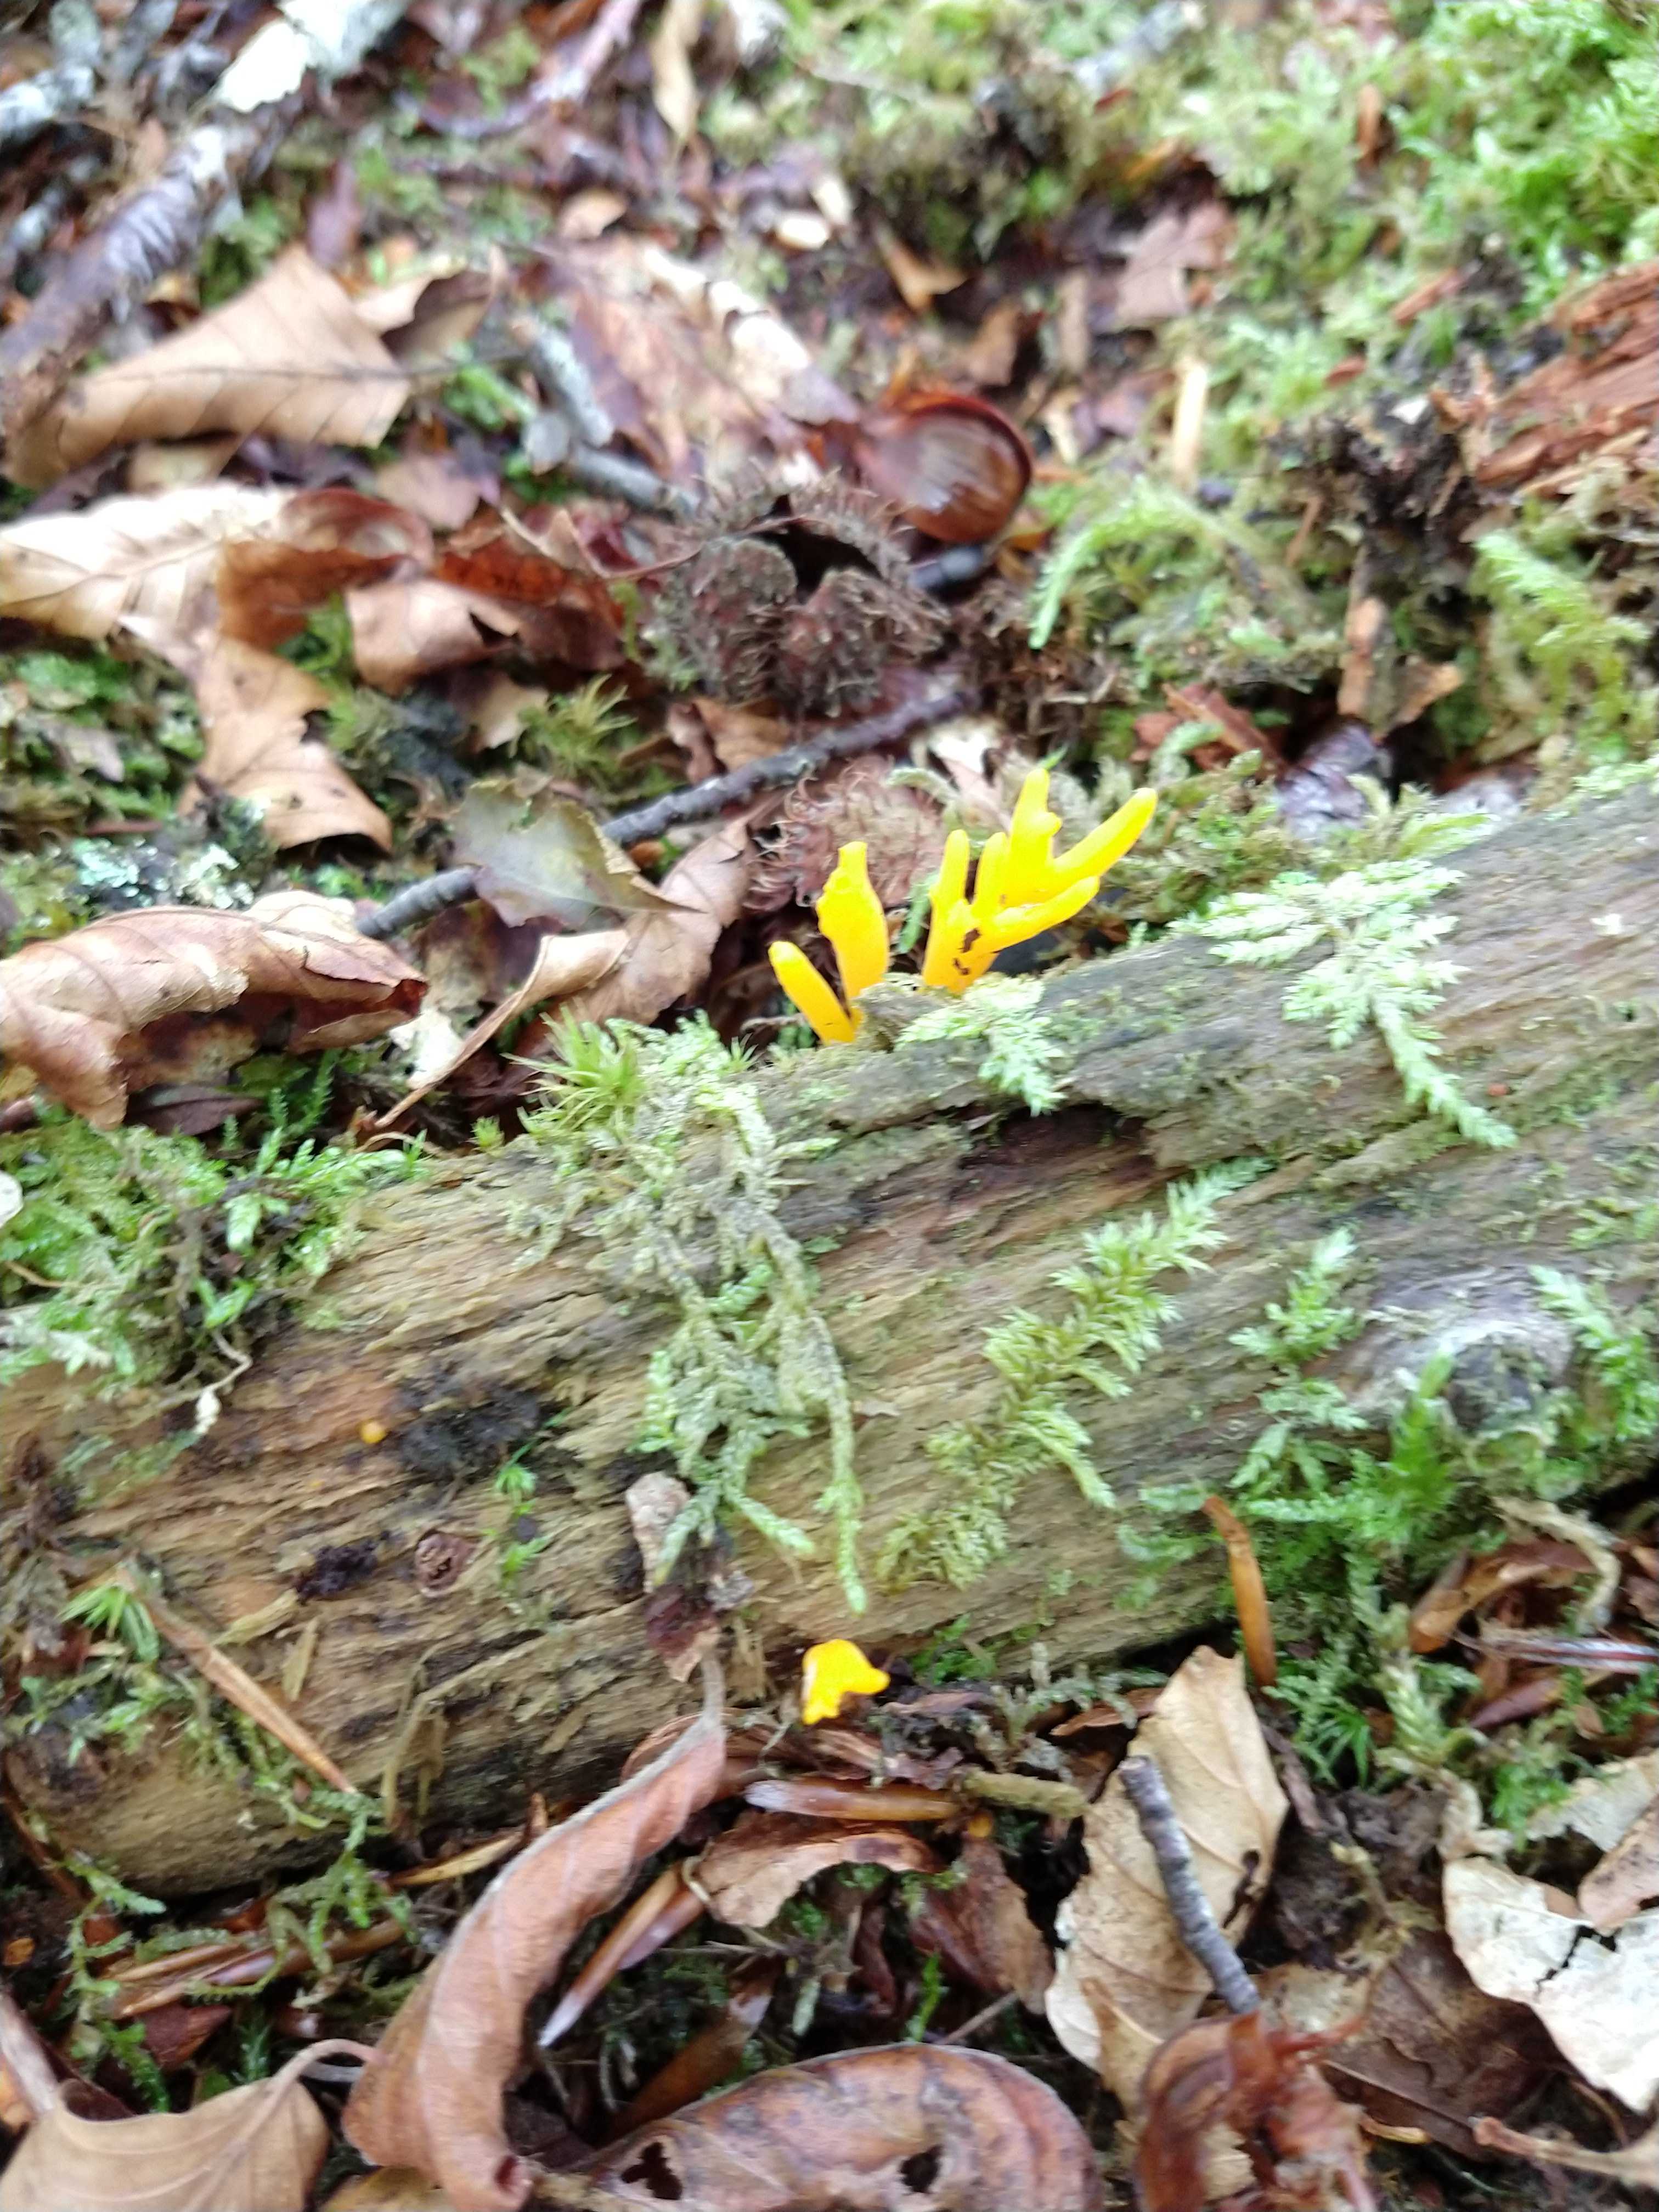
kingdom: Fungi
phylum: Basidiomycota
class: Dacrymycetes
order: Dacrymycetales
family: Dacrymycetaceae
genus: Calocera
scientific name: Calocera cornea
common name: liden guldgaffel
